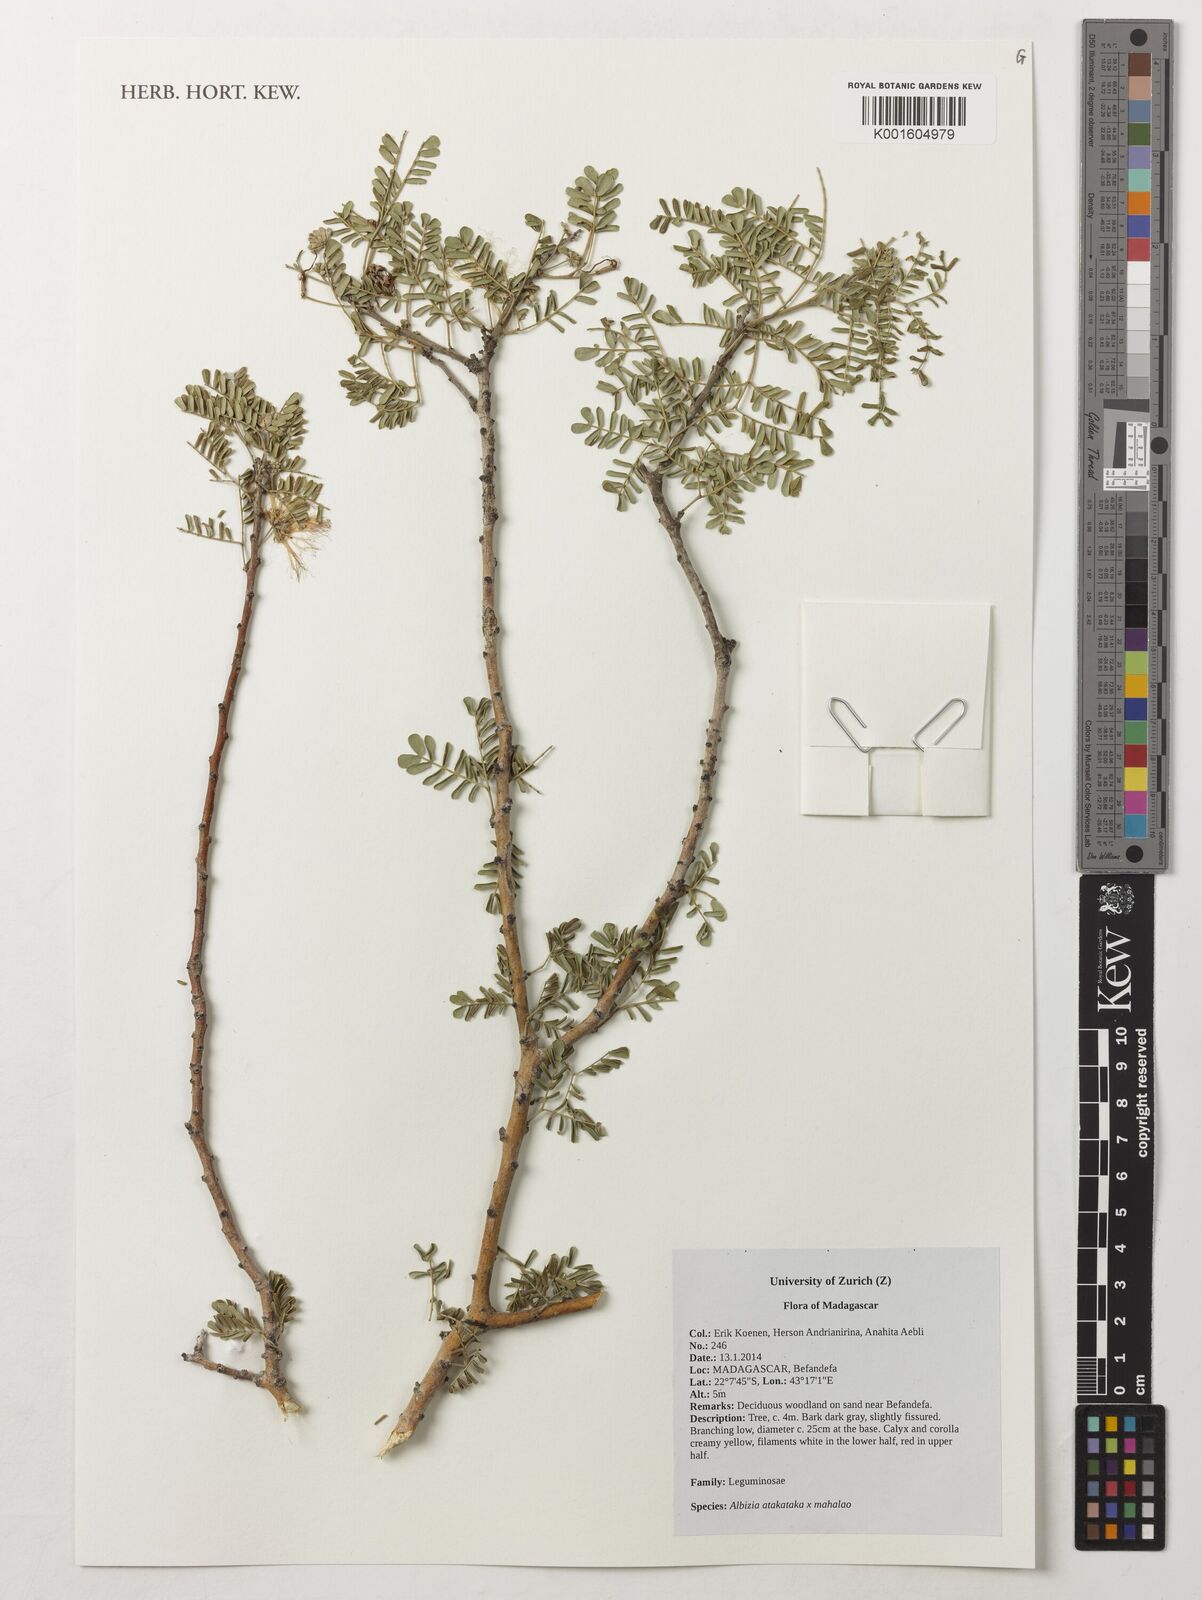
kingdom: Plantae
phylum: Tracheophyta
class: Magnoliopsida
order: Fabales
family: Fabaceae
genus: Albizia
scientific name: Albizia atakataka
